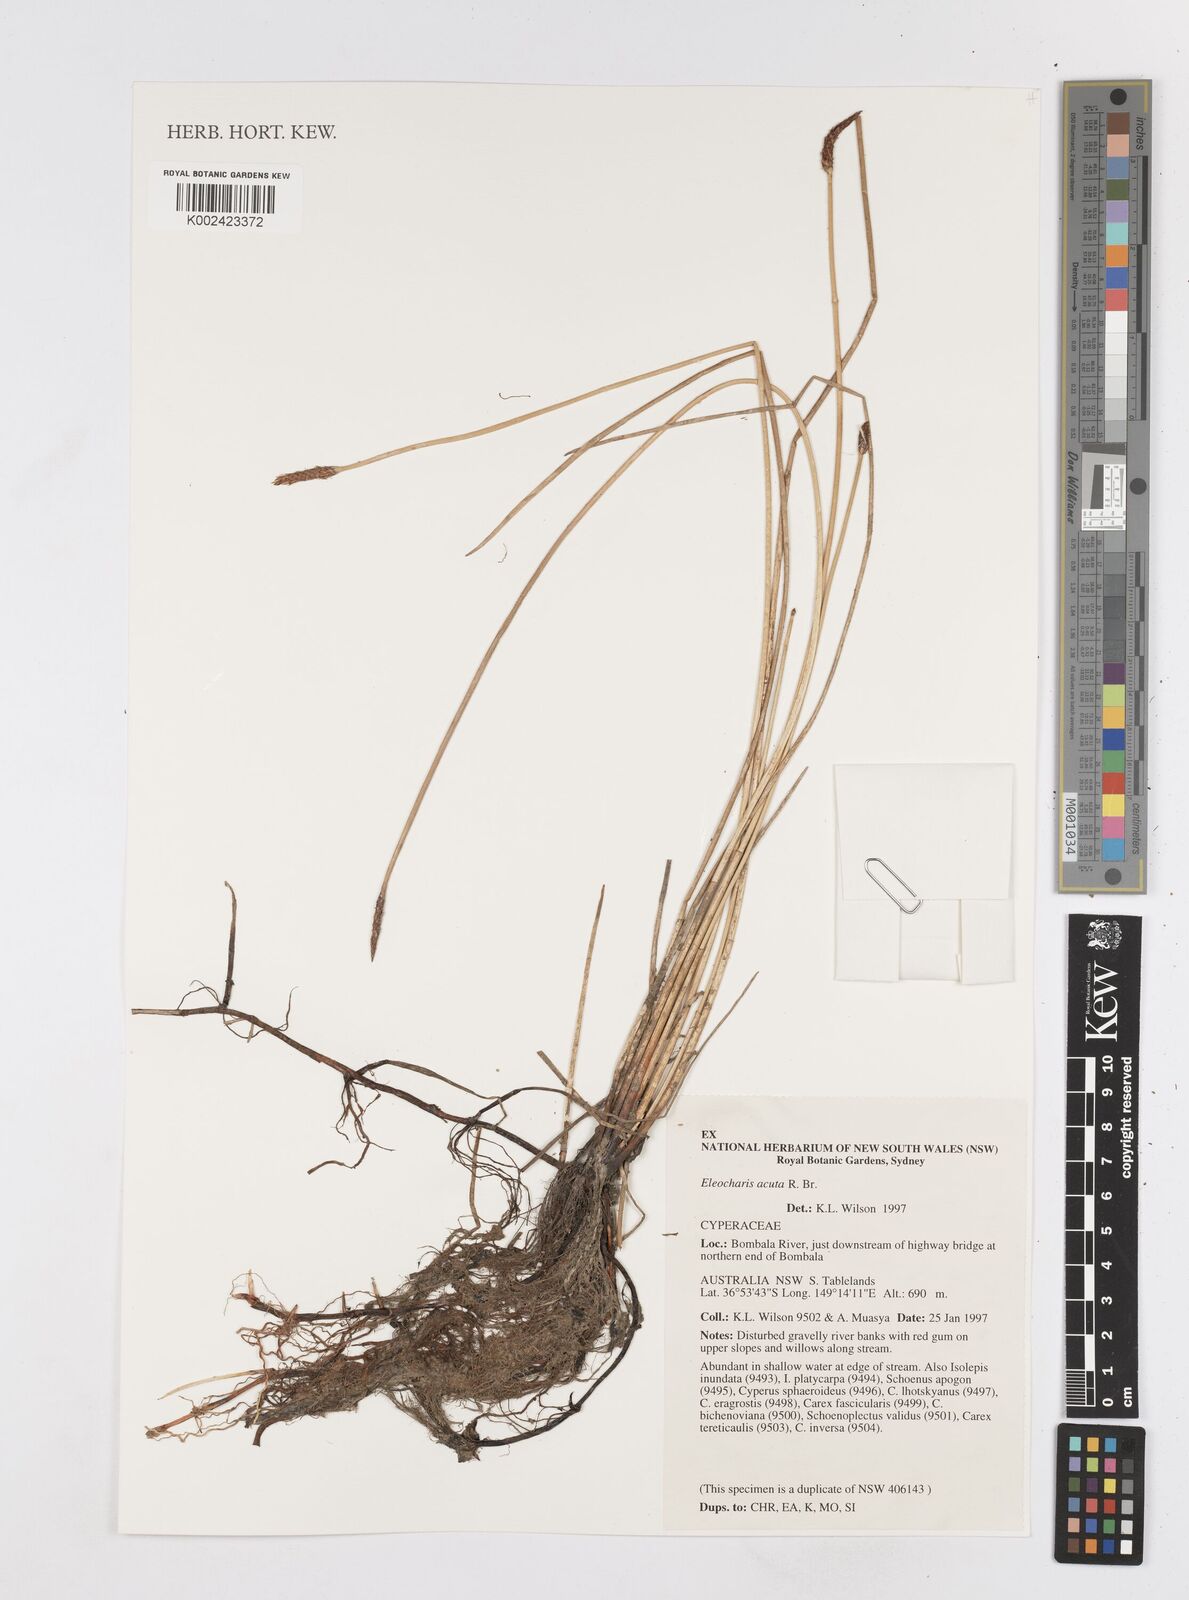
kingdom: Plantae
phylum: Tracheophyta
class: Liliopsida
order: Poales
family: Cyperaceae
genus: Eleocharis
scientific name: Eleocharis acuta
